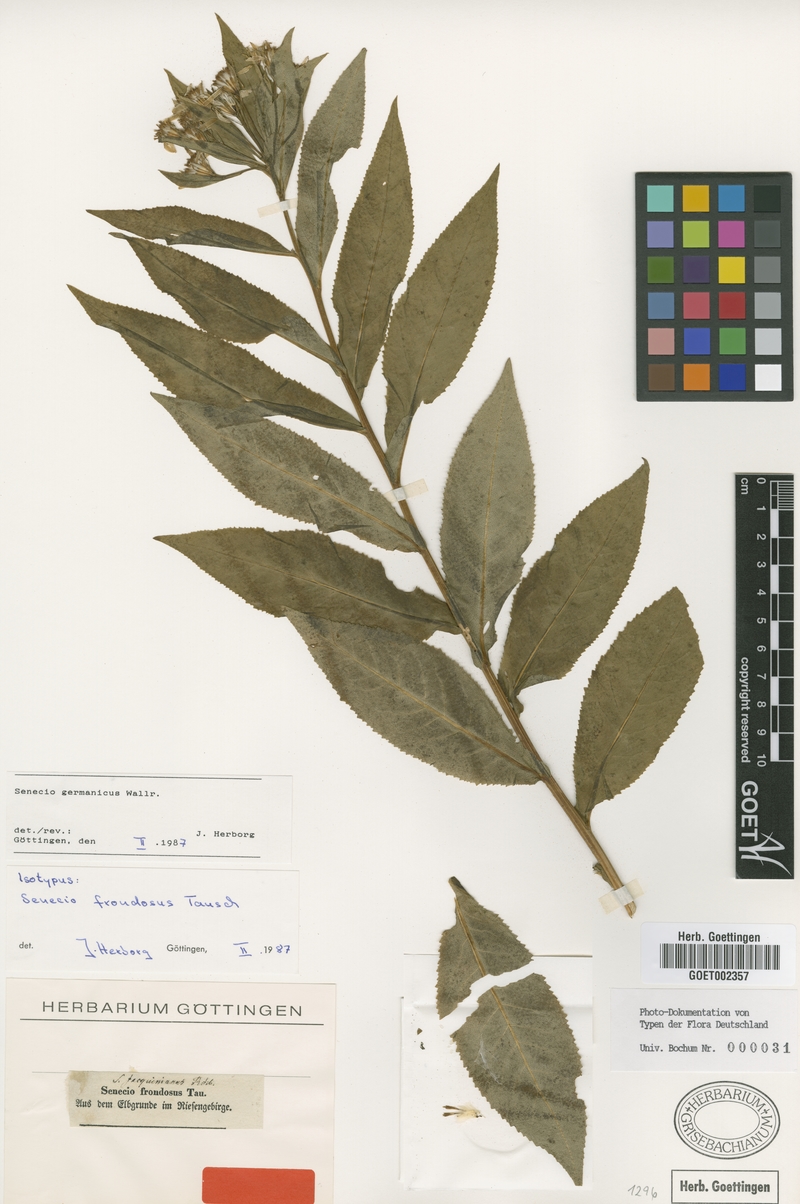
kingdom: Plantae
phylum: Tracheophyta
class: Magnoliopsida
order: Asterales
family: Asteraceae
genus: Senecio
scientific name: Senecio germanicus
